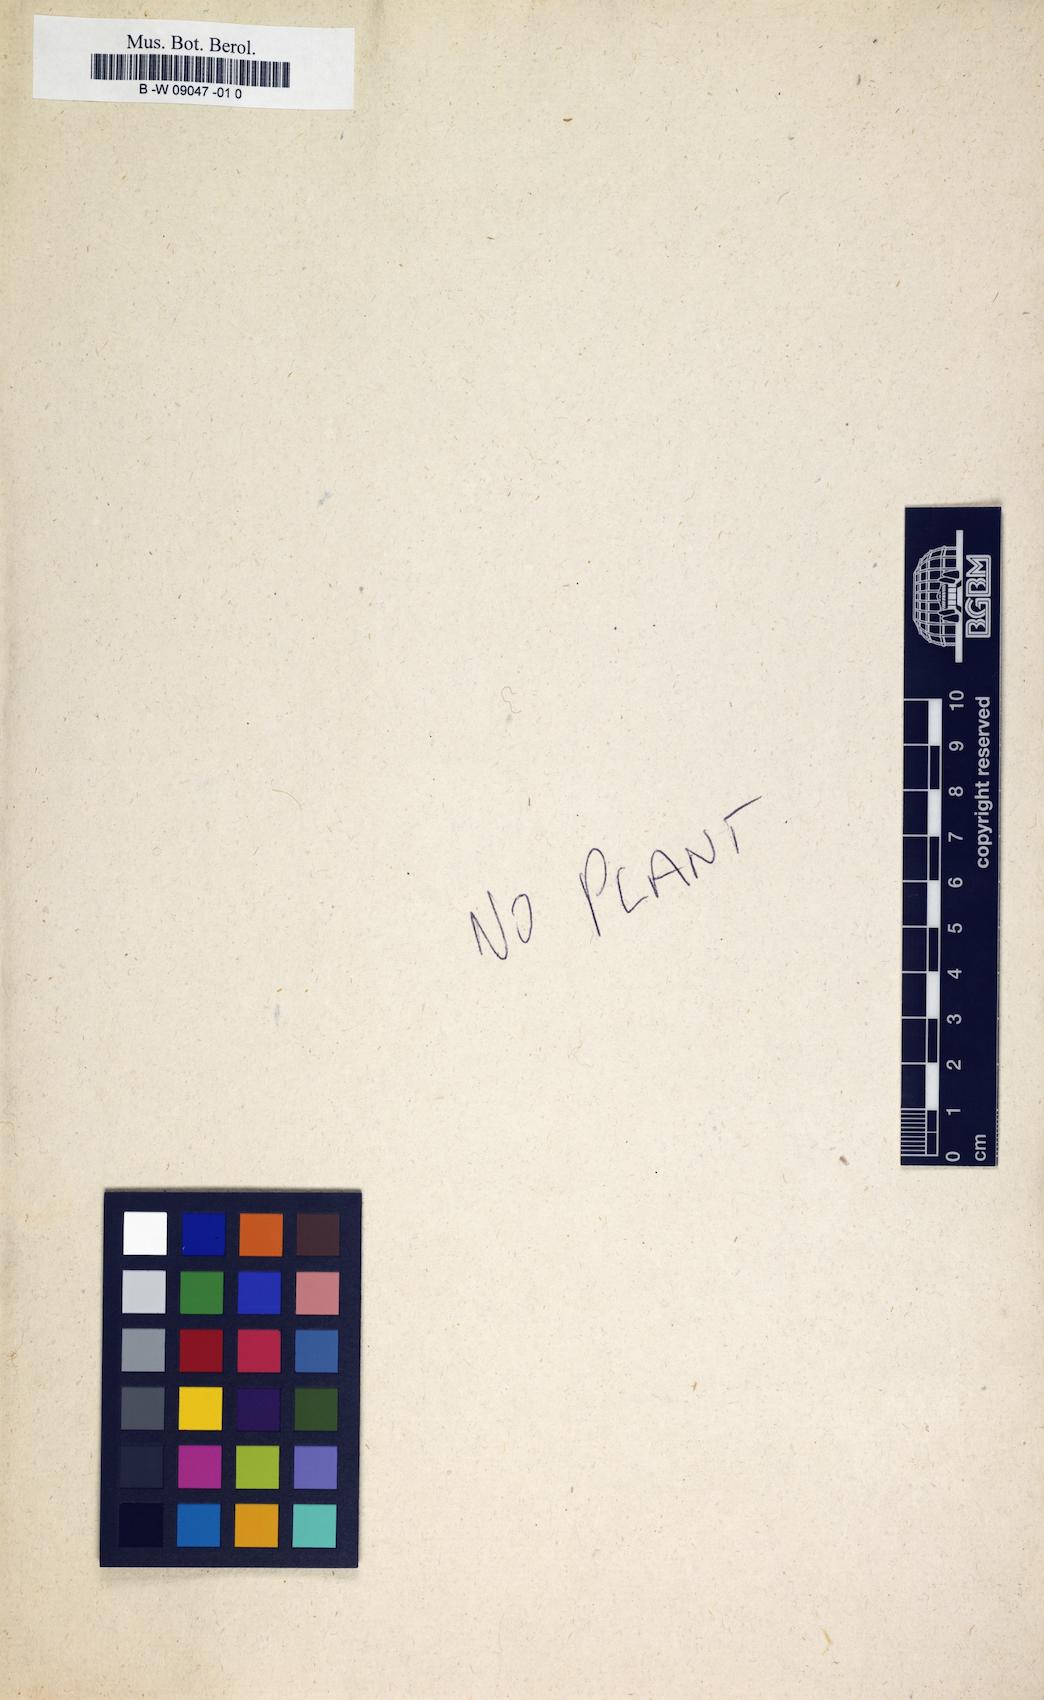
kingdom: Plantae
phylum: Tracheophyta
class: Magnoliopsida
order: Caryophyllales
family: Caryophyllaceae
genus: Spergula
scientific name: Spergula arvensis
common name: Corn spurrey
